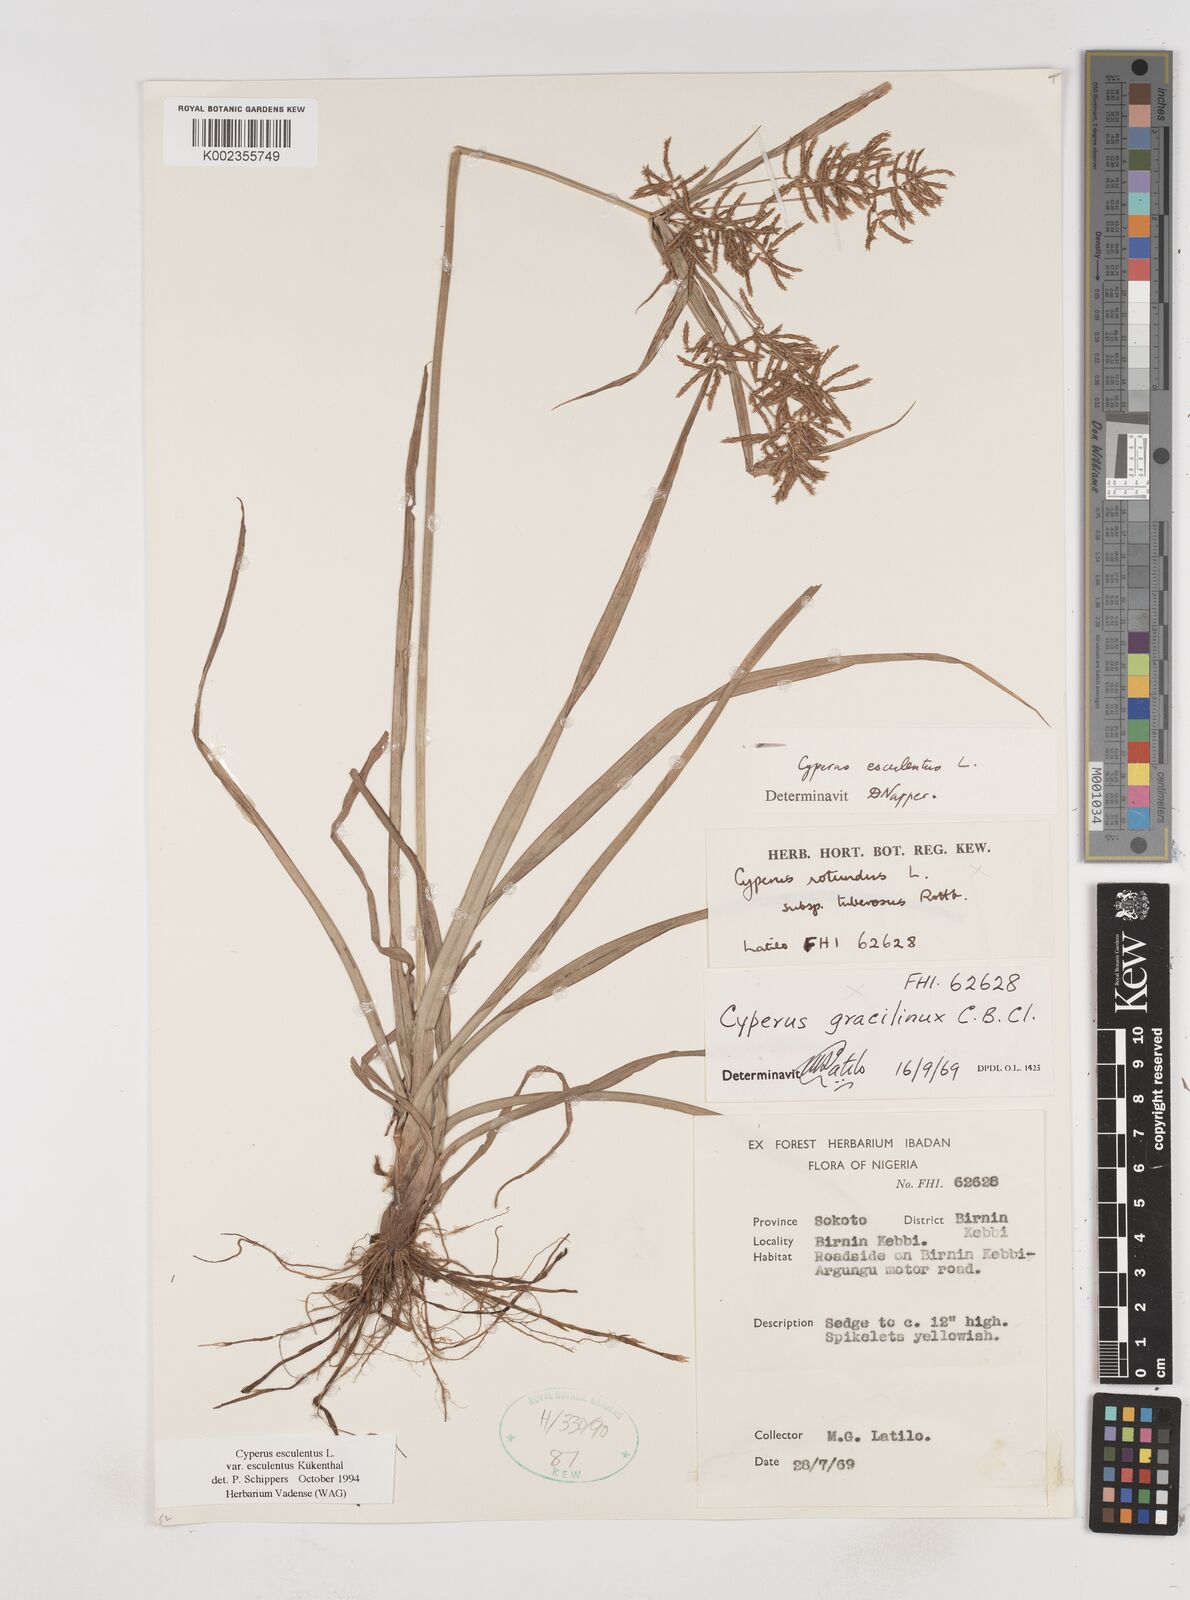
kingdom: Plantae
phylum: Tracheophyta
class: Liliopsida
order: Poales
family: Cyperaceae
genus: Cyperus
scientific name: Cyperus esculentus
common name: Yellow nutsedge
